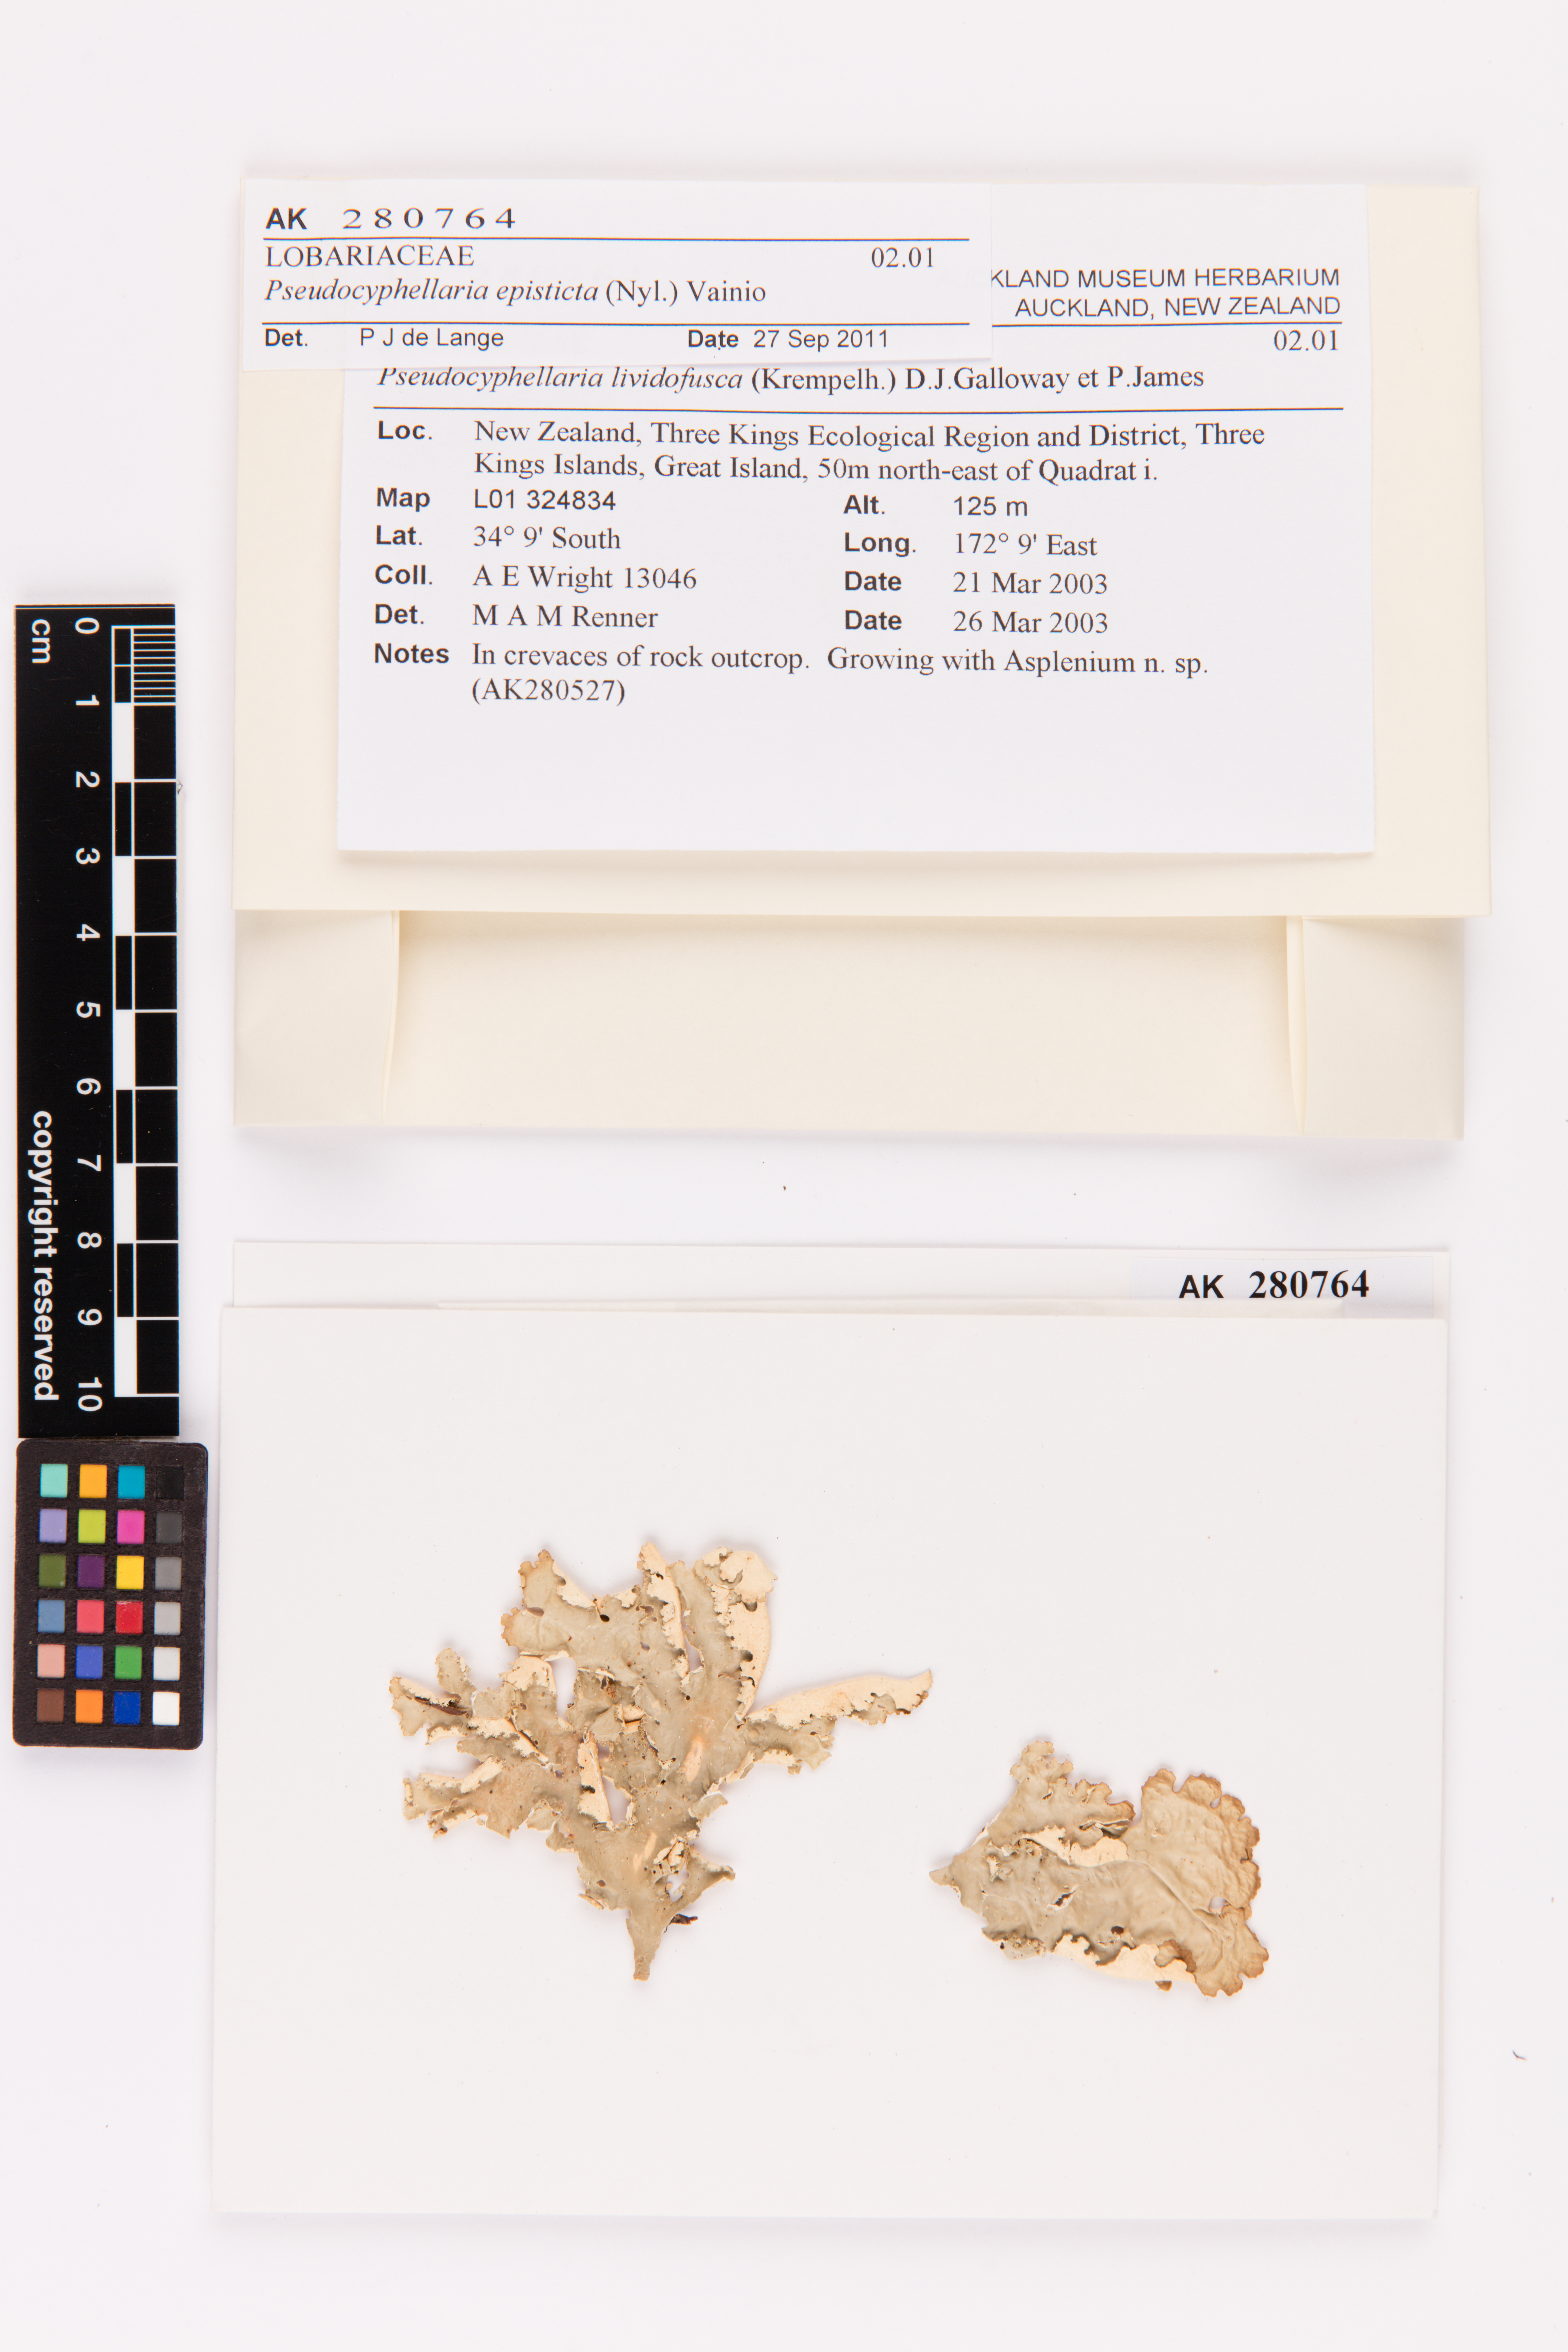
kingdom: Fungi
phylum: Ascomycota
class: Lecanoromycetes
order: Peltigerales
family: Lobariaceae
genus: Pseudocyphellaria
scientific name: Pseudocyphellaria episticta
